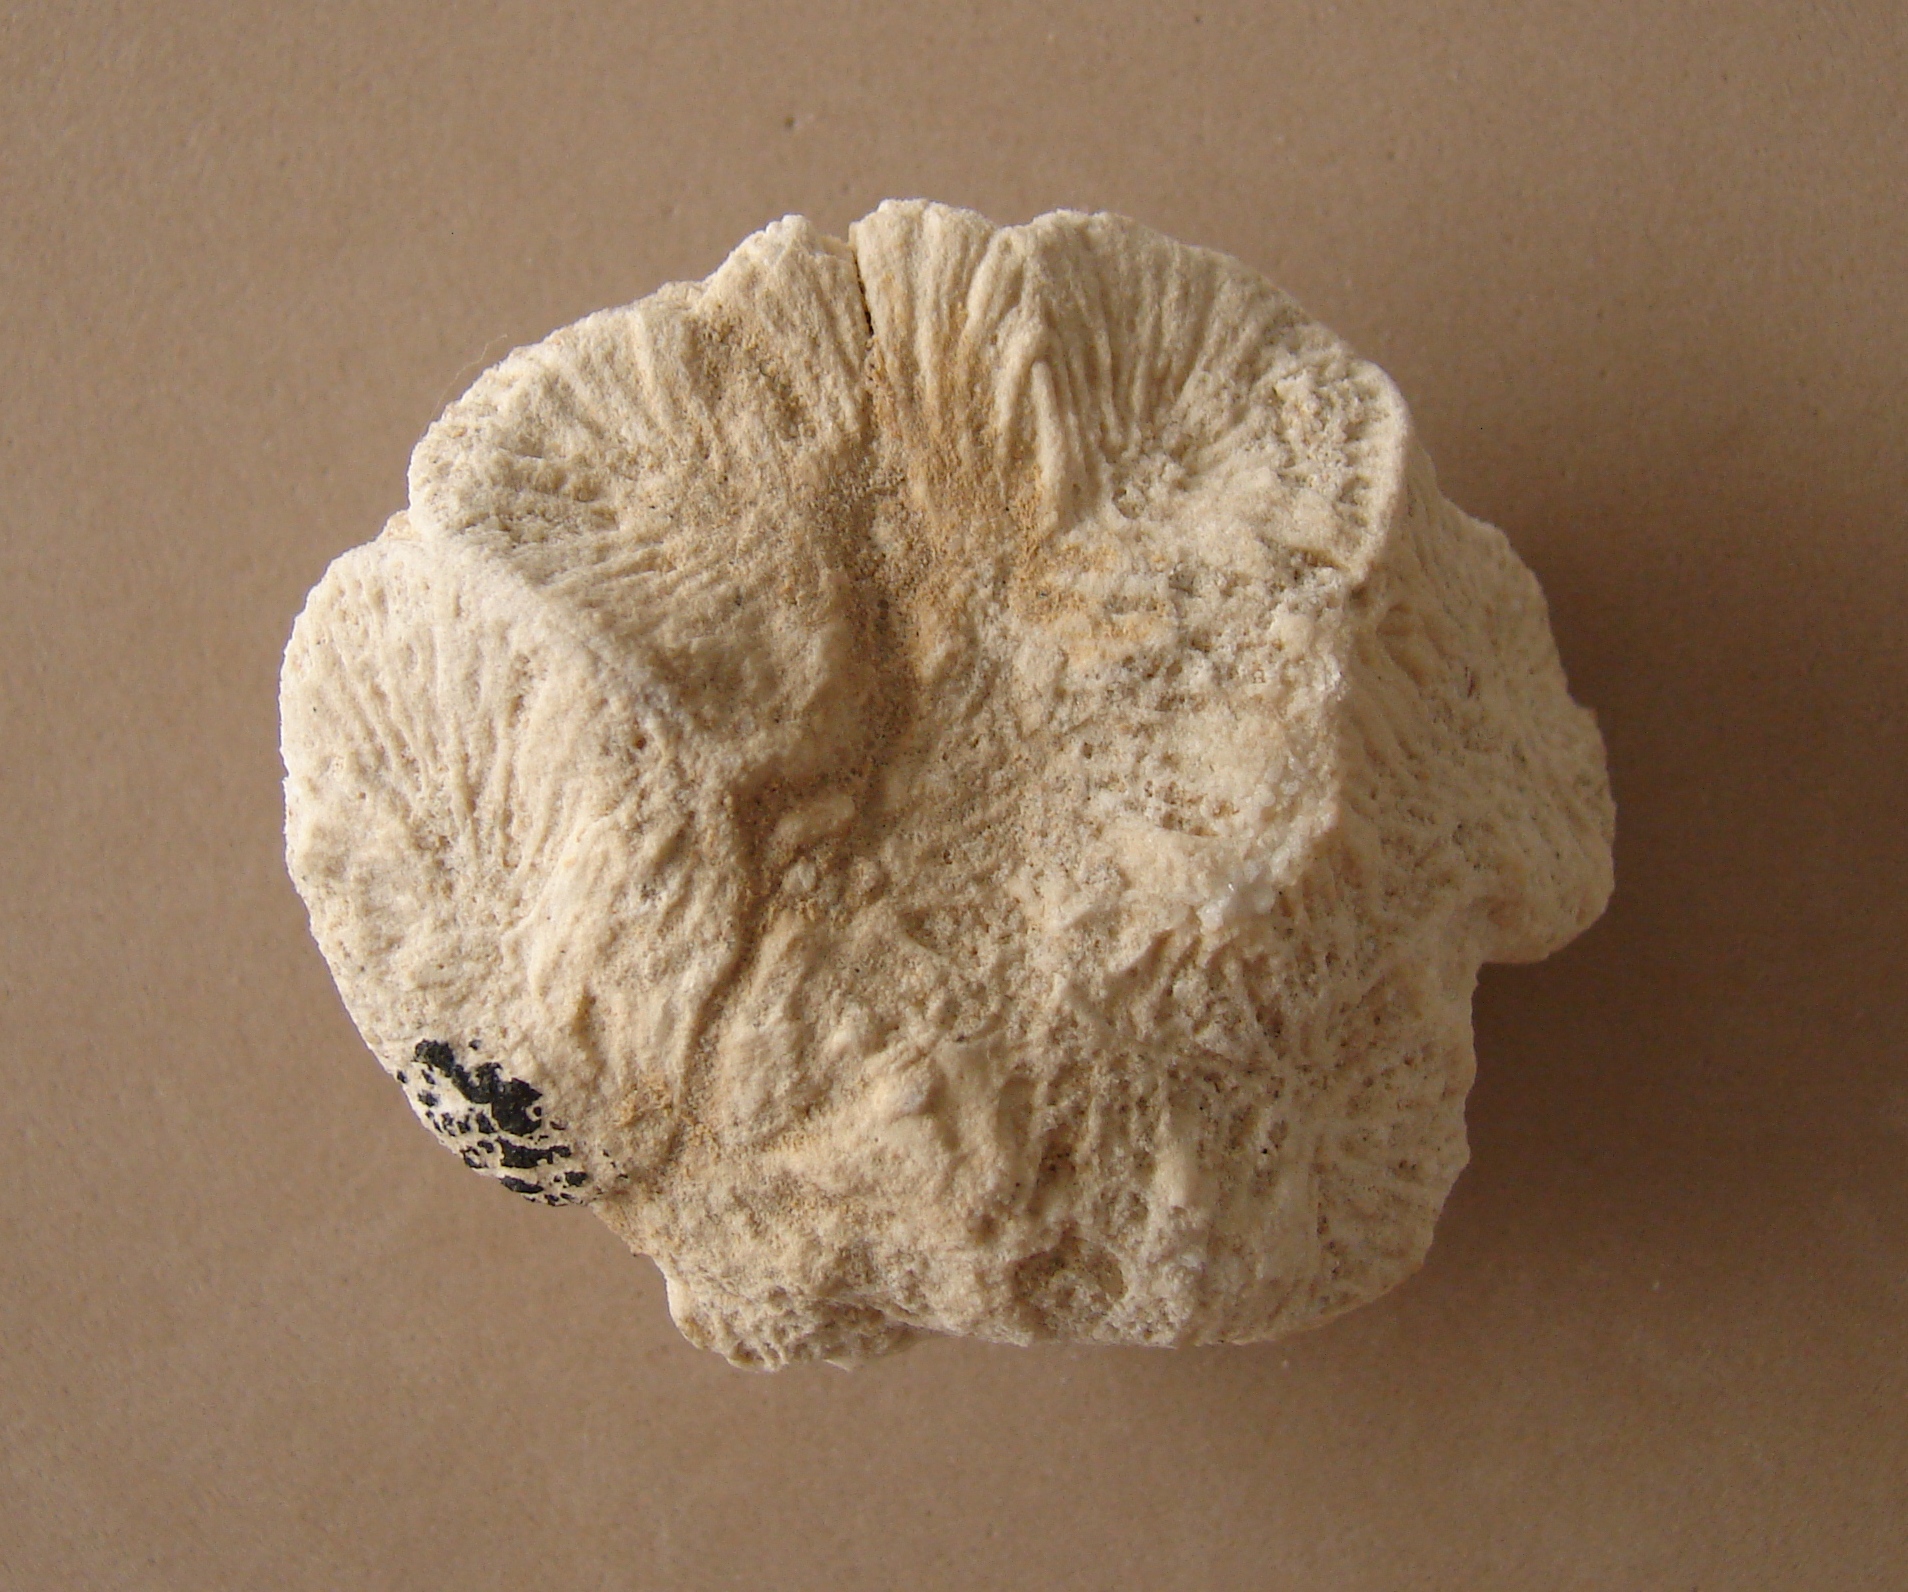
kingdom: Animalia
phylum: Cnidaria
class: Anthozoa
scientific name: Anthozoa
